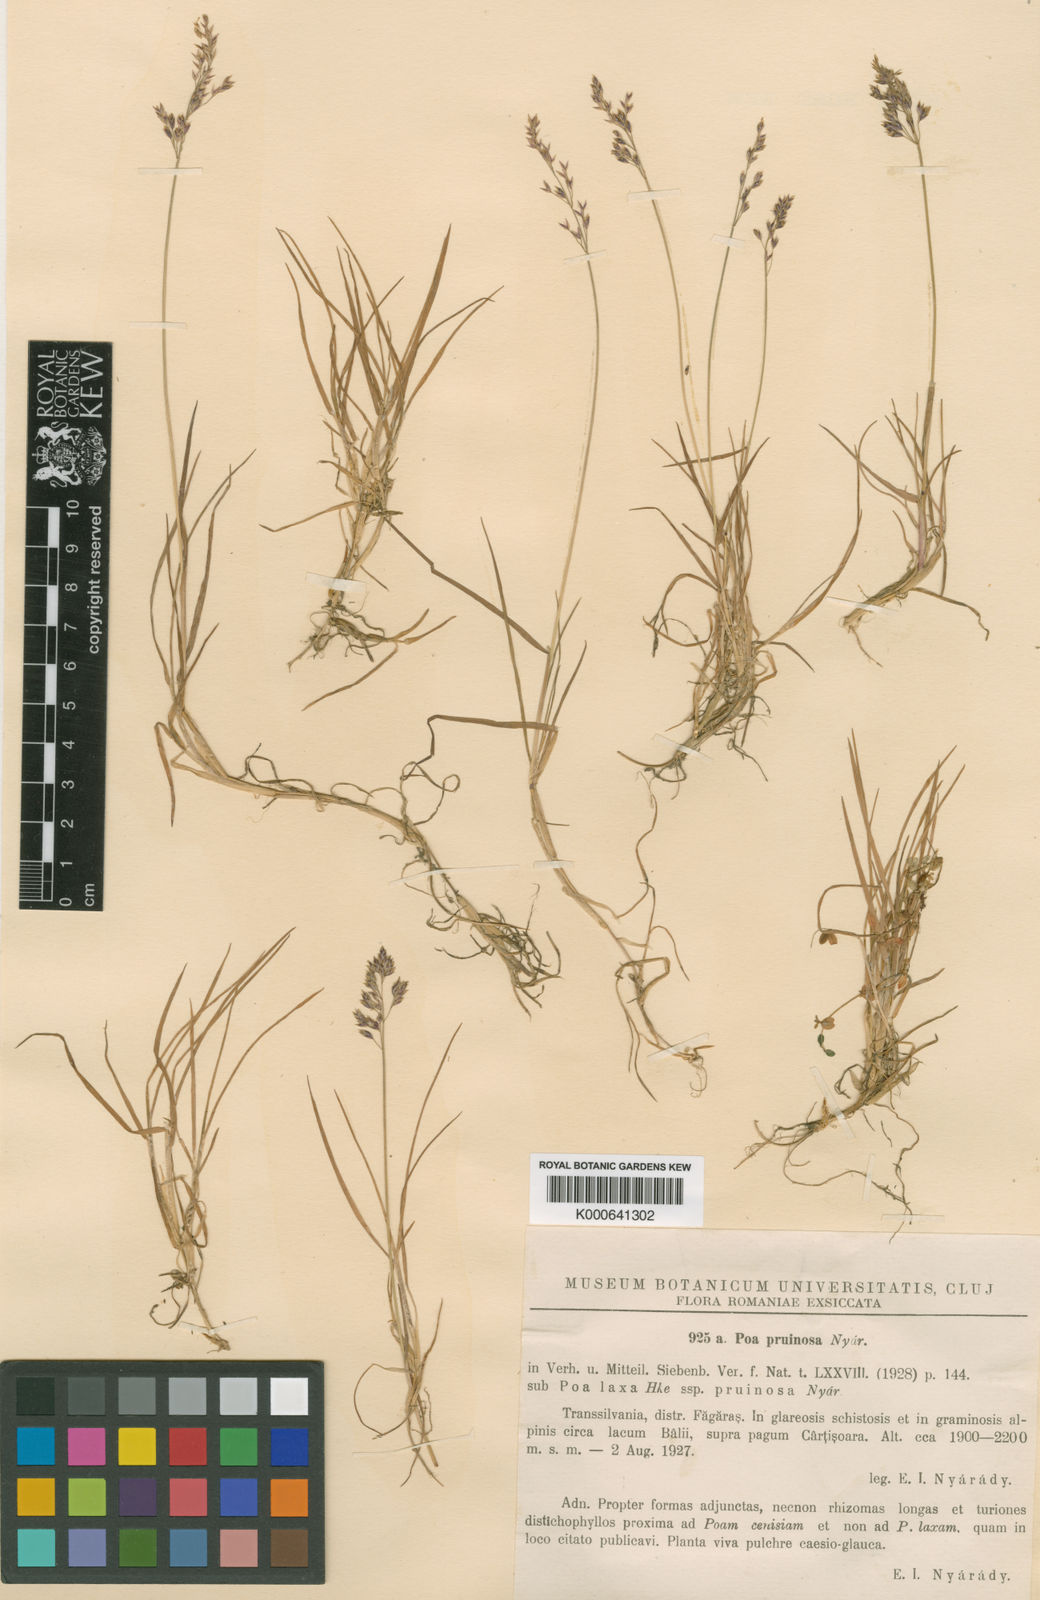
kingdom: Plantae
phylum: Tracheophyta
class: Liliopsida
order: Poales
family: Poaceae
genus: Poa
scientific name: Poa
